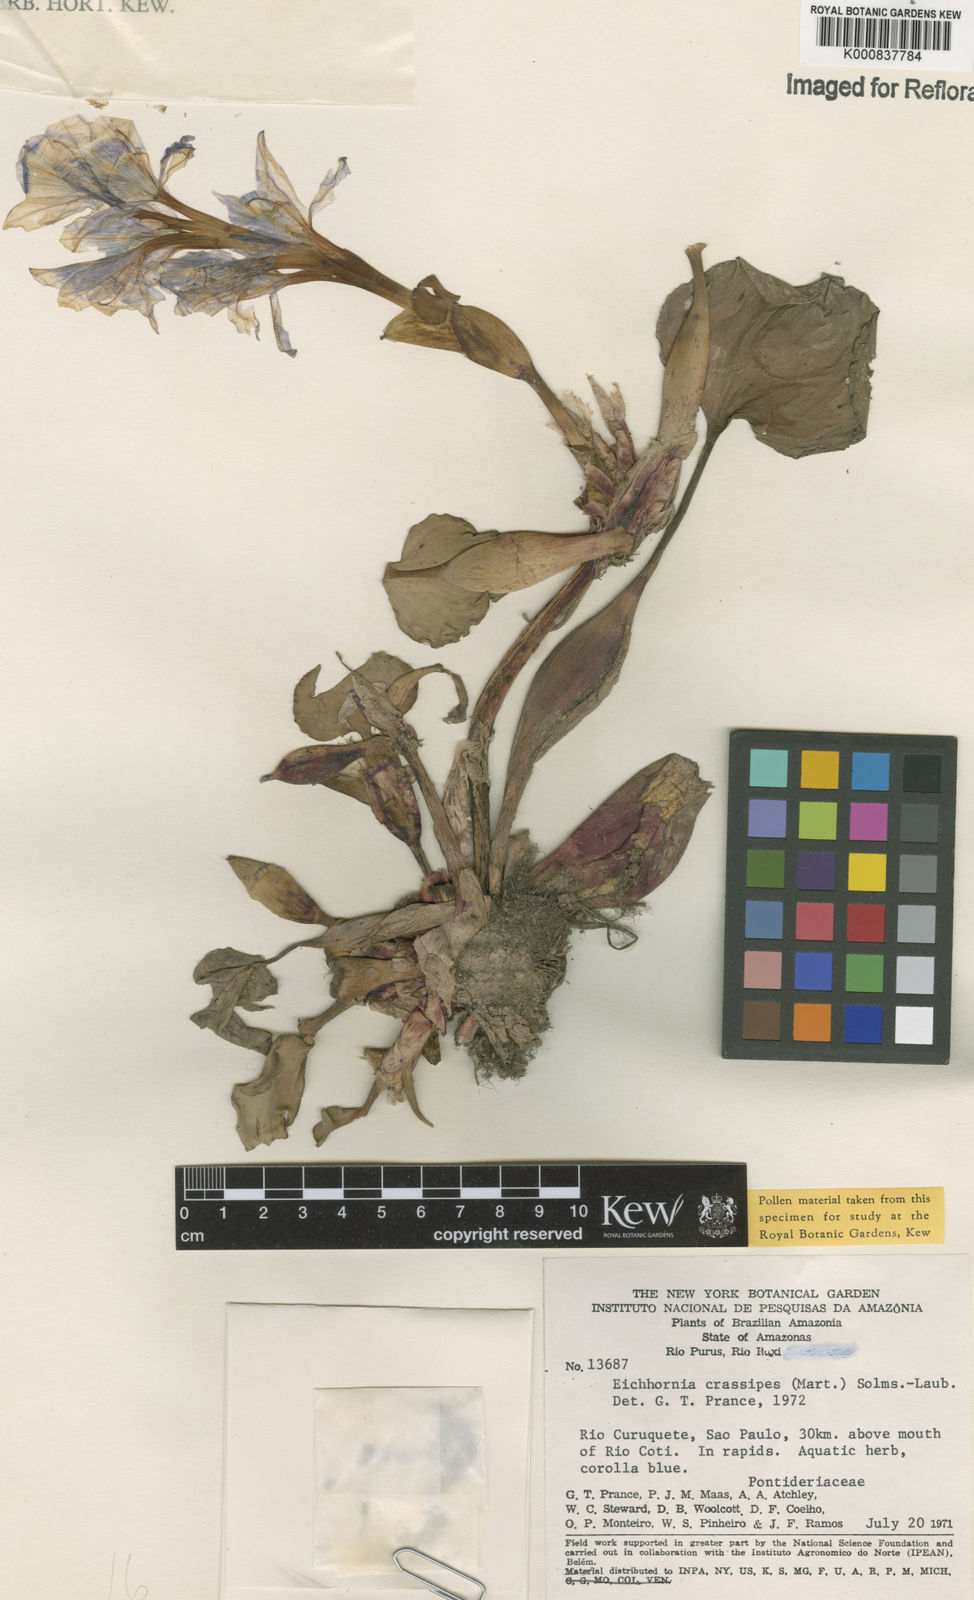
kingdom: Plantae
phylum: Tracheophyta
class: Liliopsida
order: Commelinales
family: Pontederiaceae
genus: Pontederia
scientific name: Pontederia crassipes
